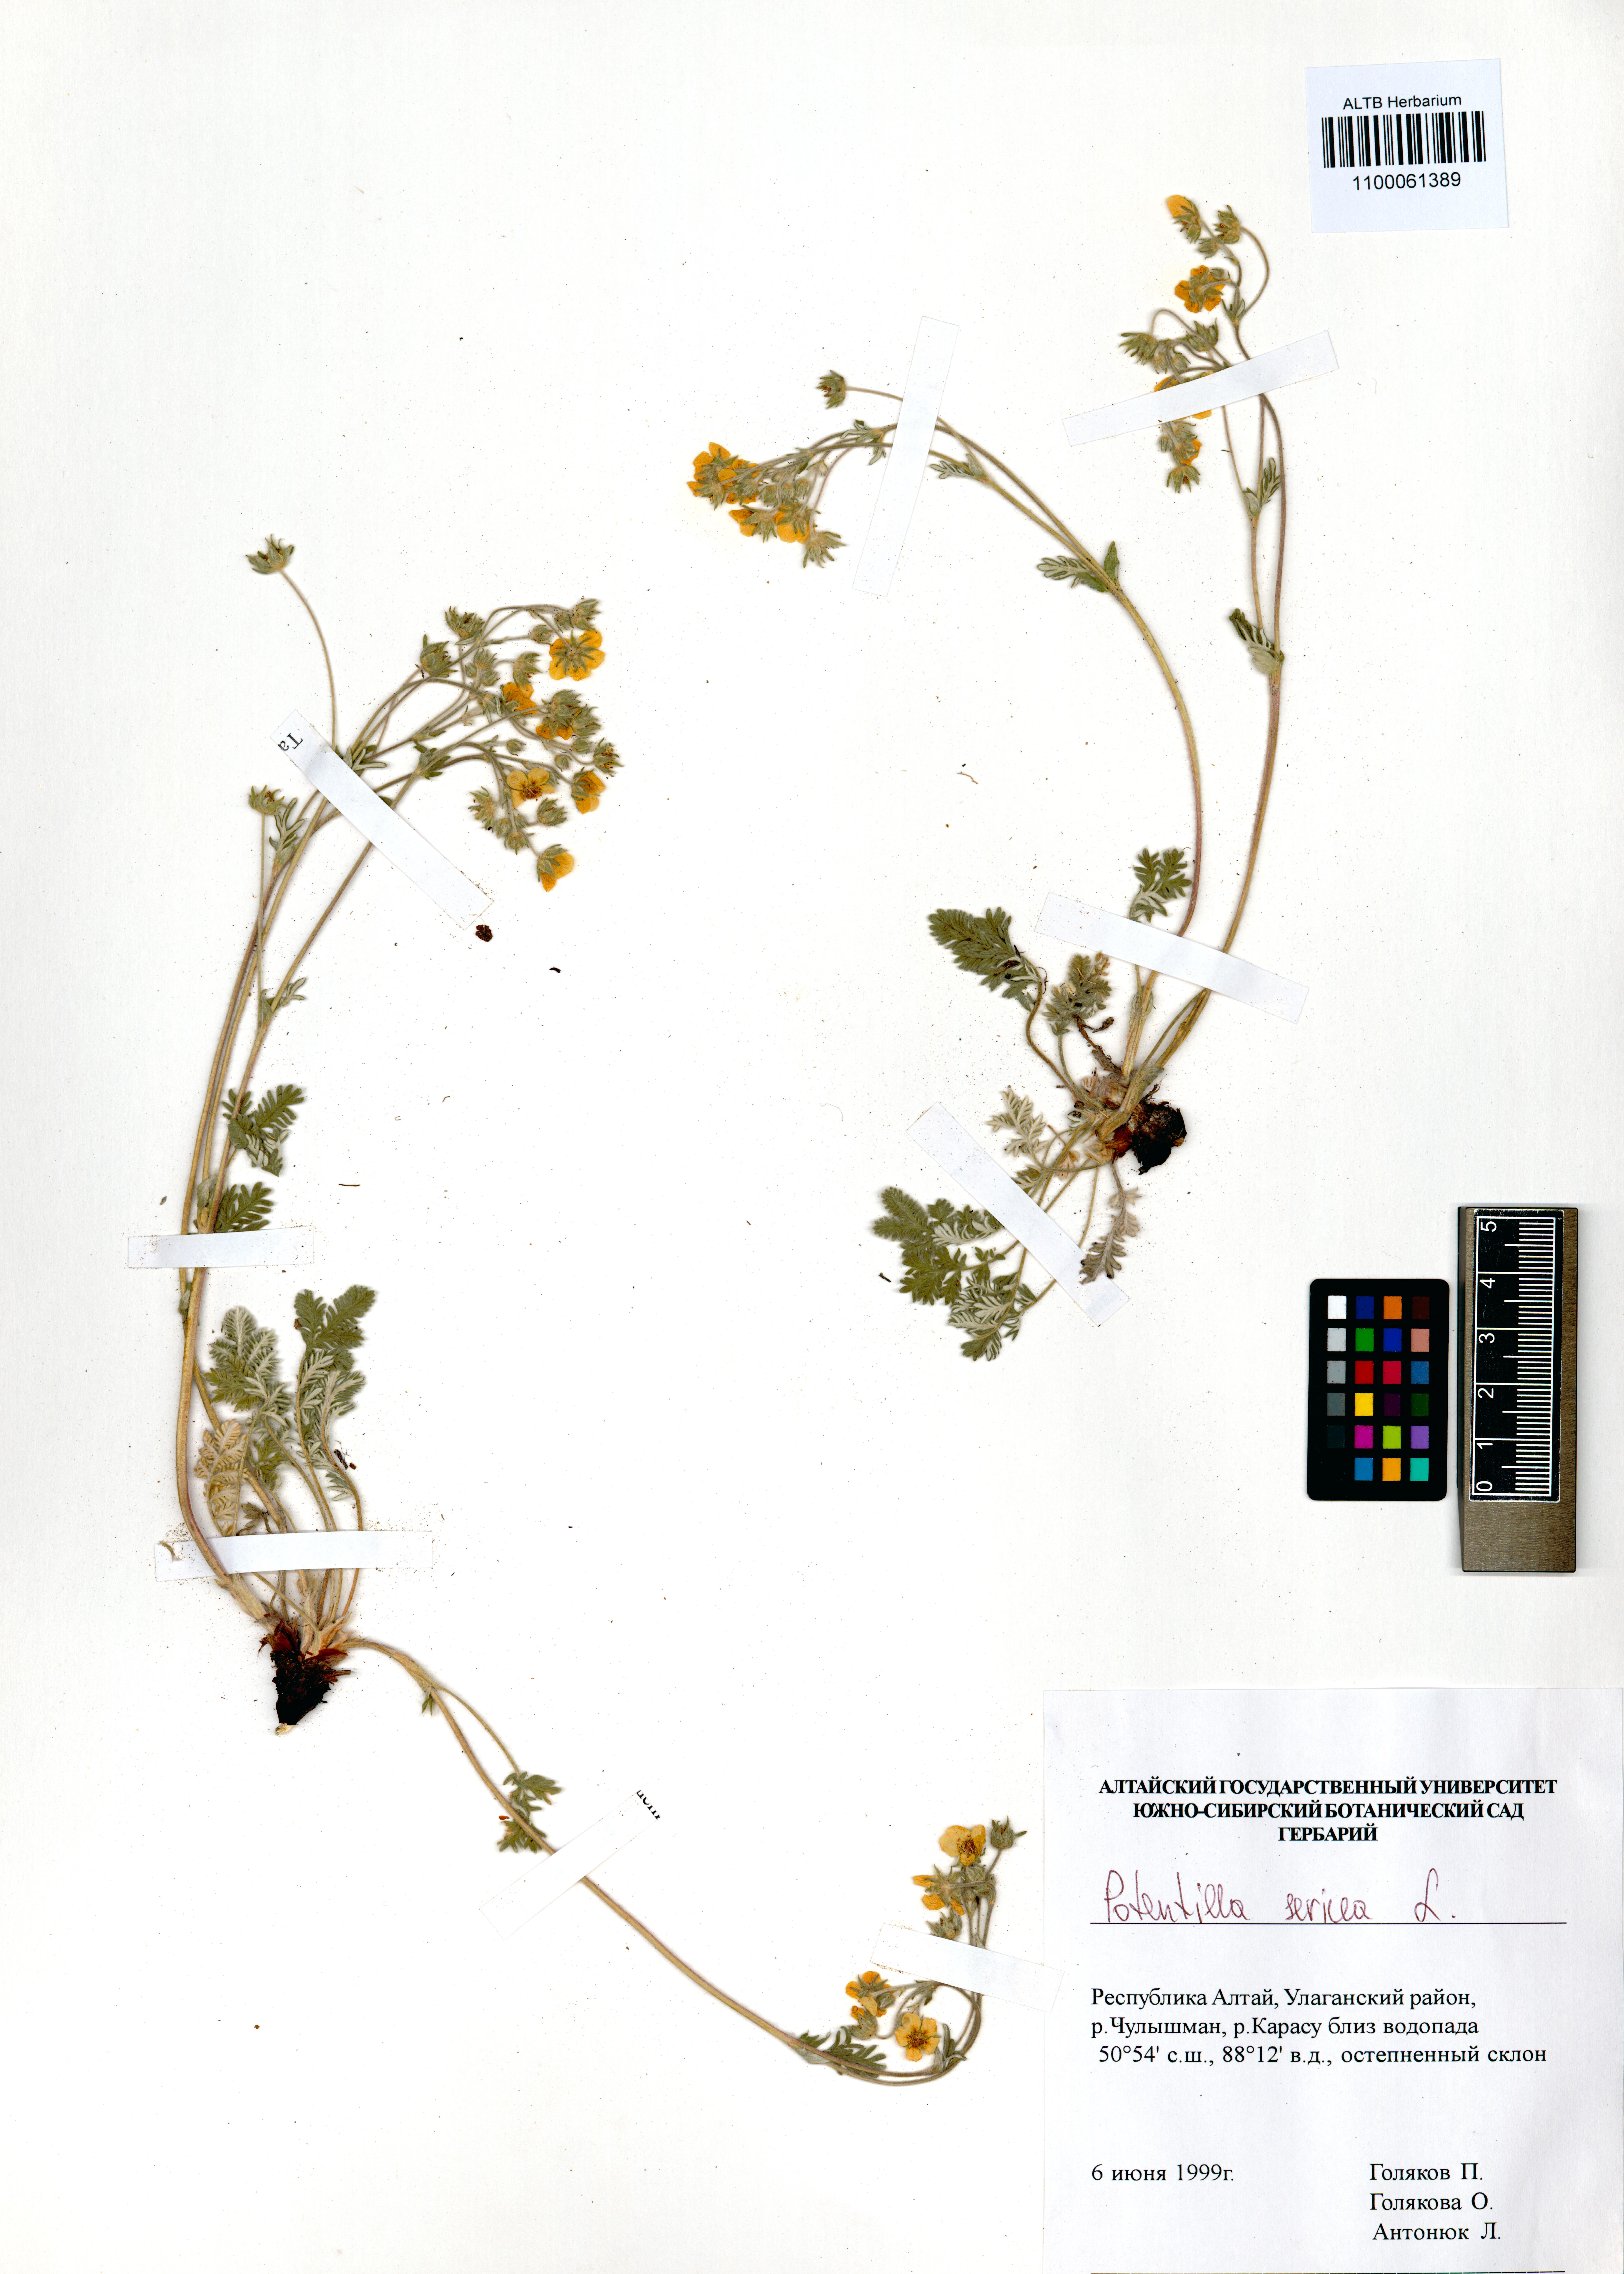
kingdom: Plantae
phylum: Tracheophyta
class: Magnoliopsida
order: Rosales
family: Rosaceae
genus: Potentilla
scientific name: Potentilla sericea
